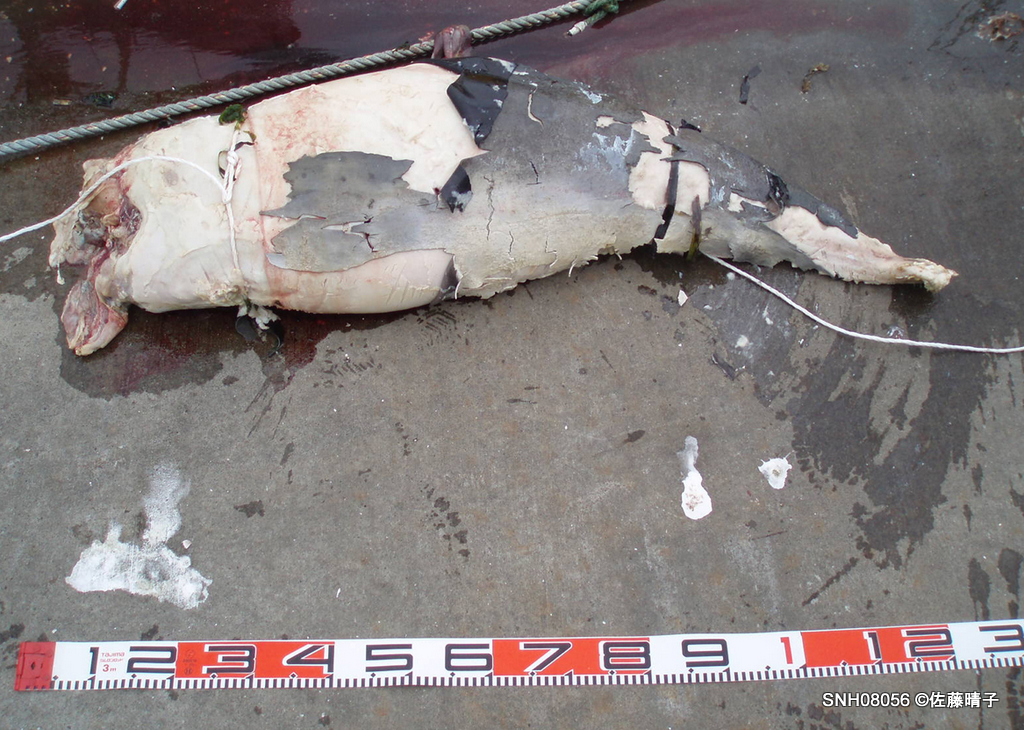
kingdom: Animalia
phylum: Chordata
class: Mammalia
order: Cetacea
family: Phocoenidae
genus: Phocoena
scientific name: Phocoena phocoena
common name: Harbour porpoise
